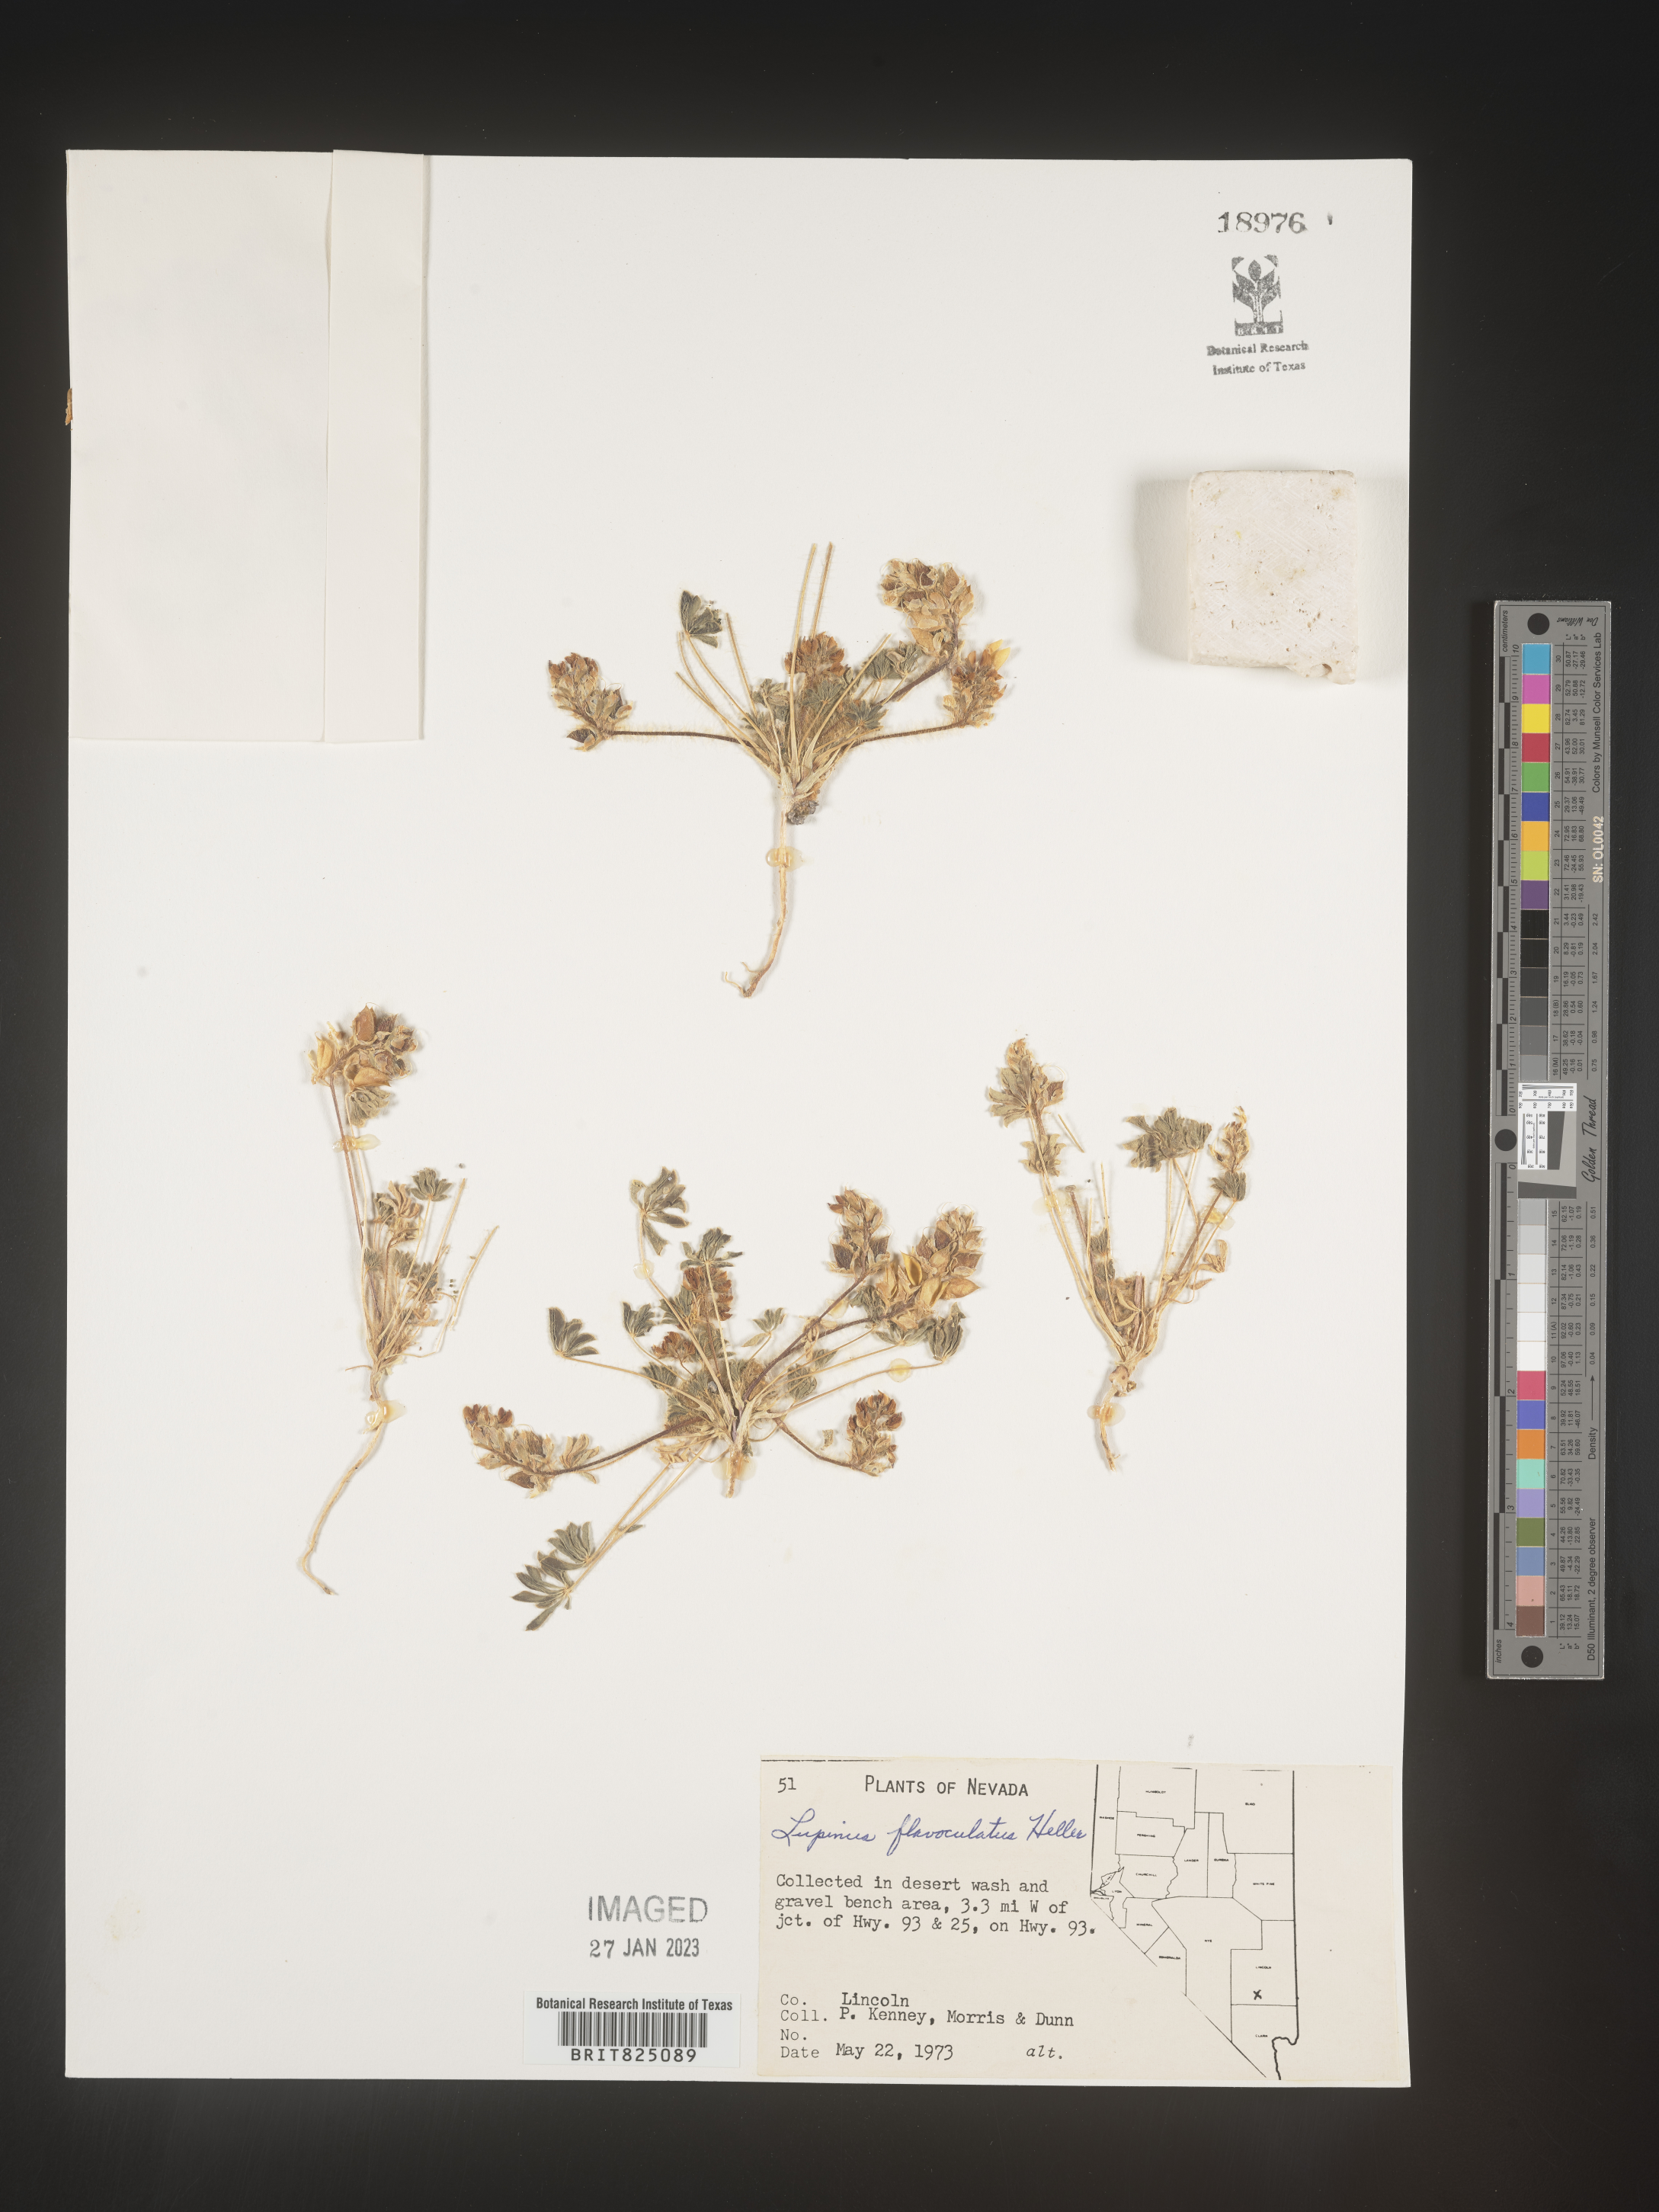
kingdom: Plantae
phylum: Tracheophyta
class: Magnoliopsida
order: Fabales
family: Fabaceae
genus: Lupinus
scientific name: Lupinus
